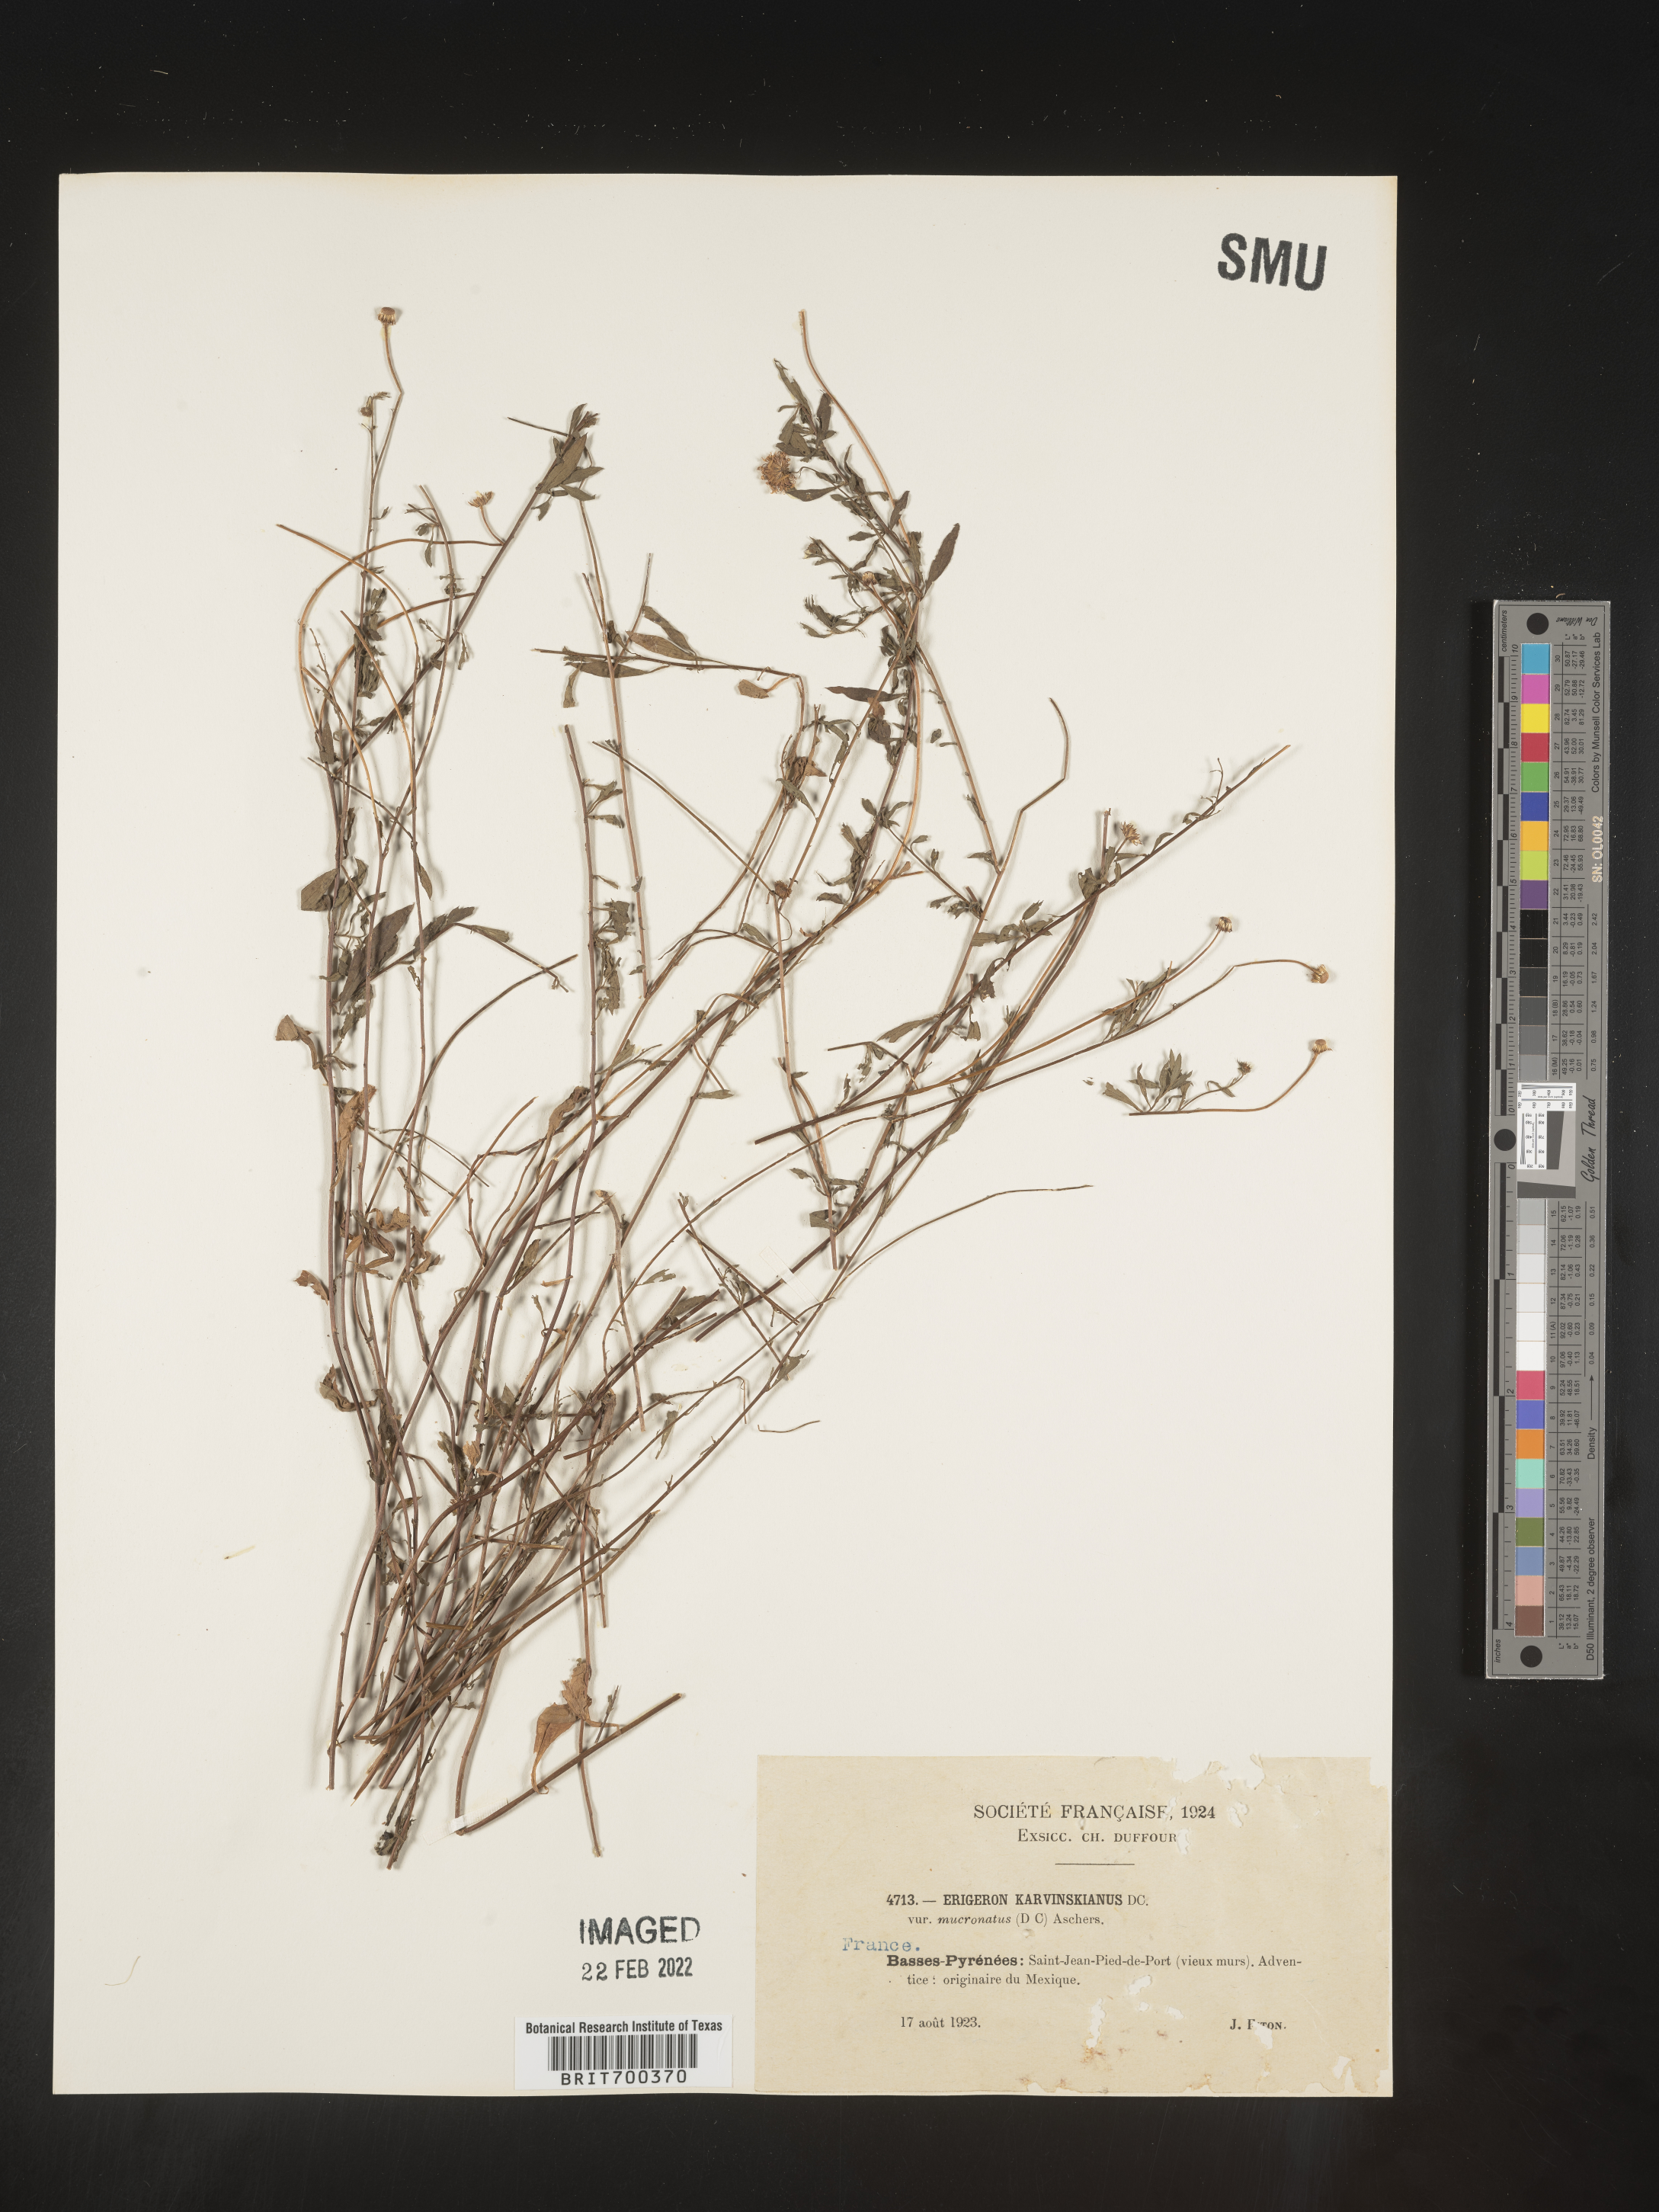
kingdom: Plantae
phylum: Tracheophyta
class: Magnoliopsida
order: Asterales
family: Asteraceae
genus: Erigeron
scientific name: Erigeron
